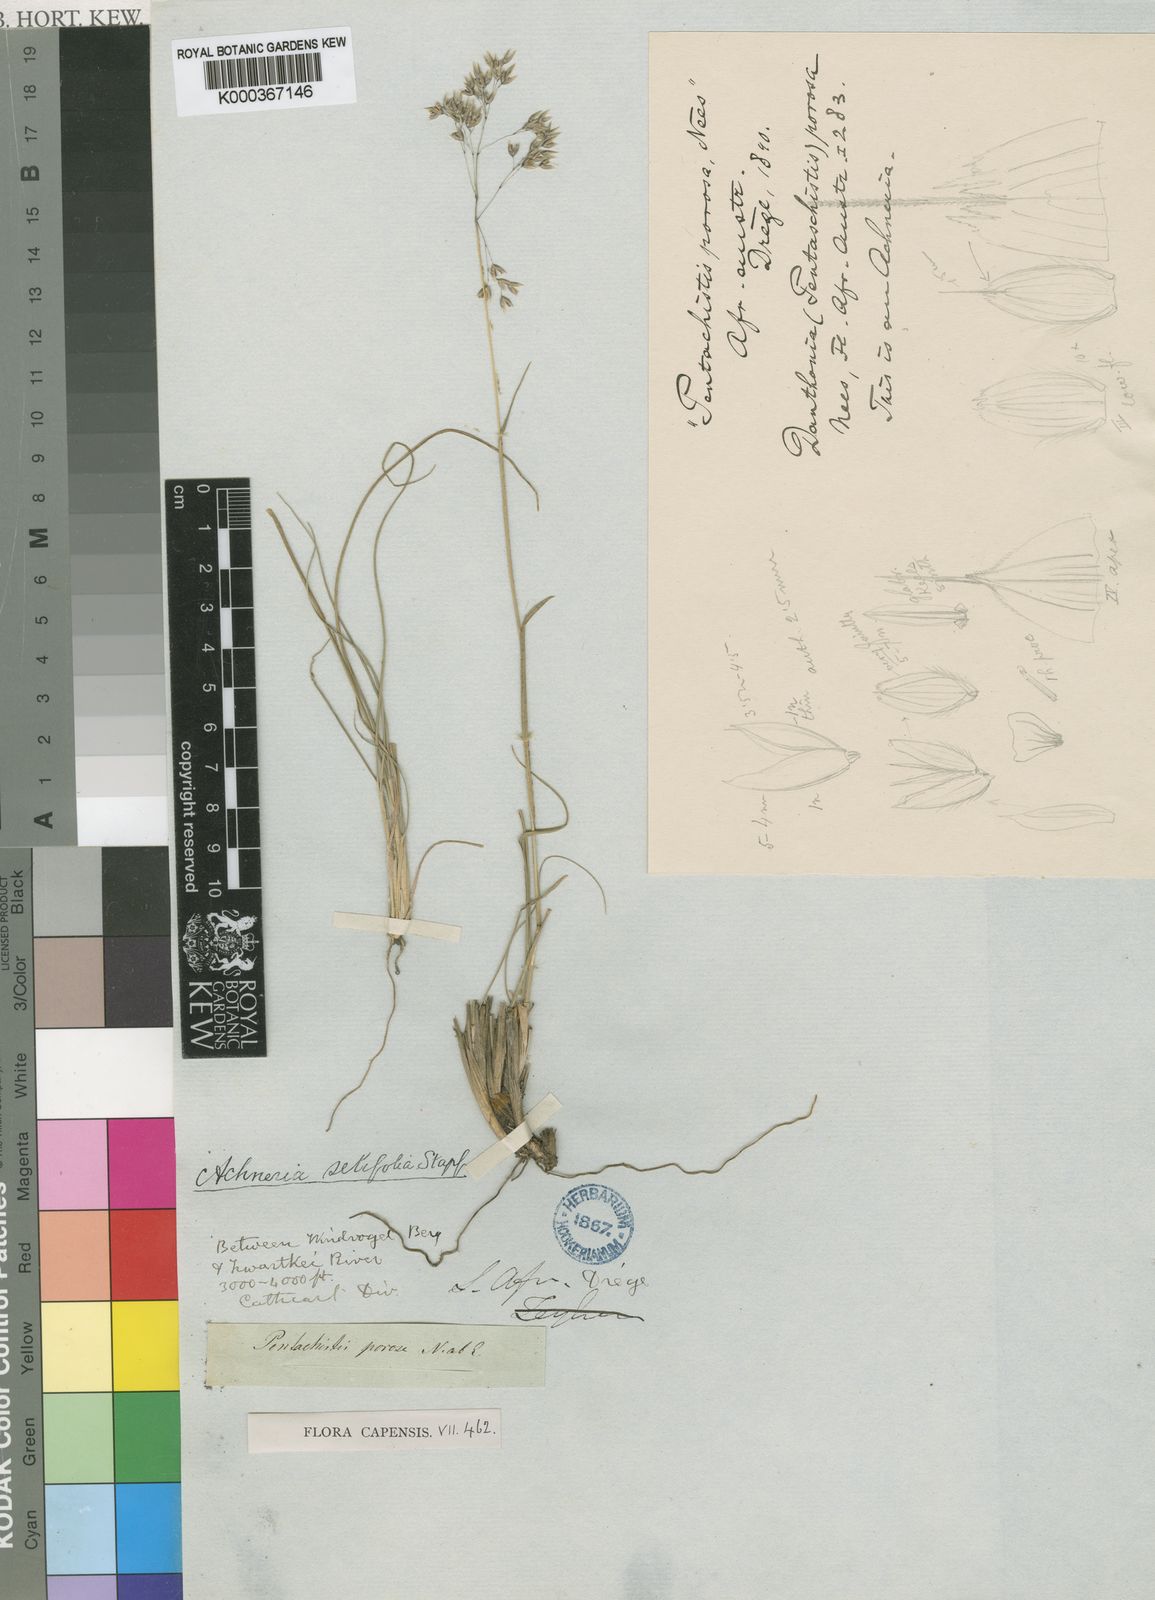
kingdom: Plantae
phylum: Tracheophyta
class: Liliopsida
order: Poales
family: Poaceae
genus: Pentameris
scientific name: Pentameris ampla
